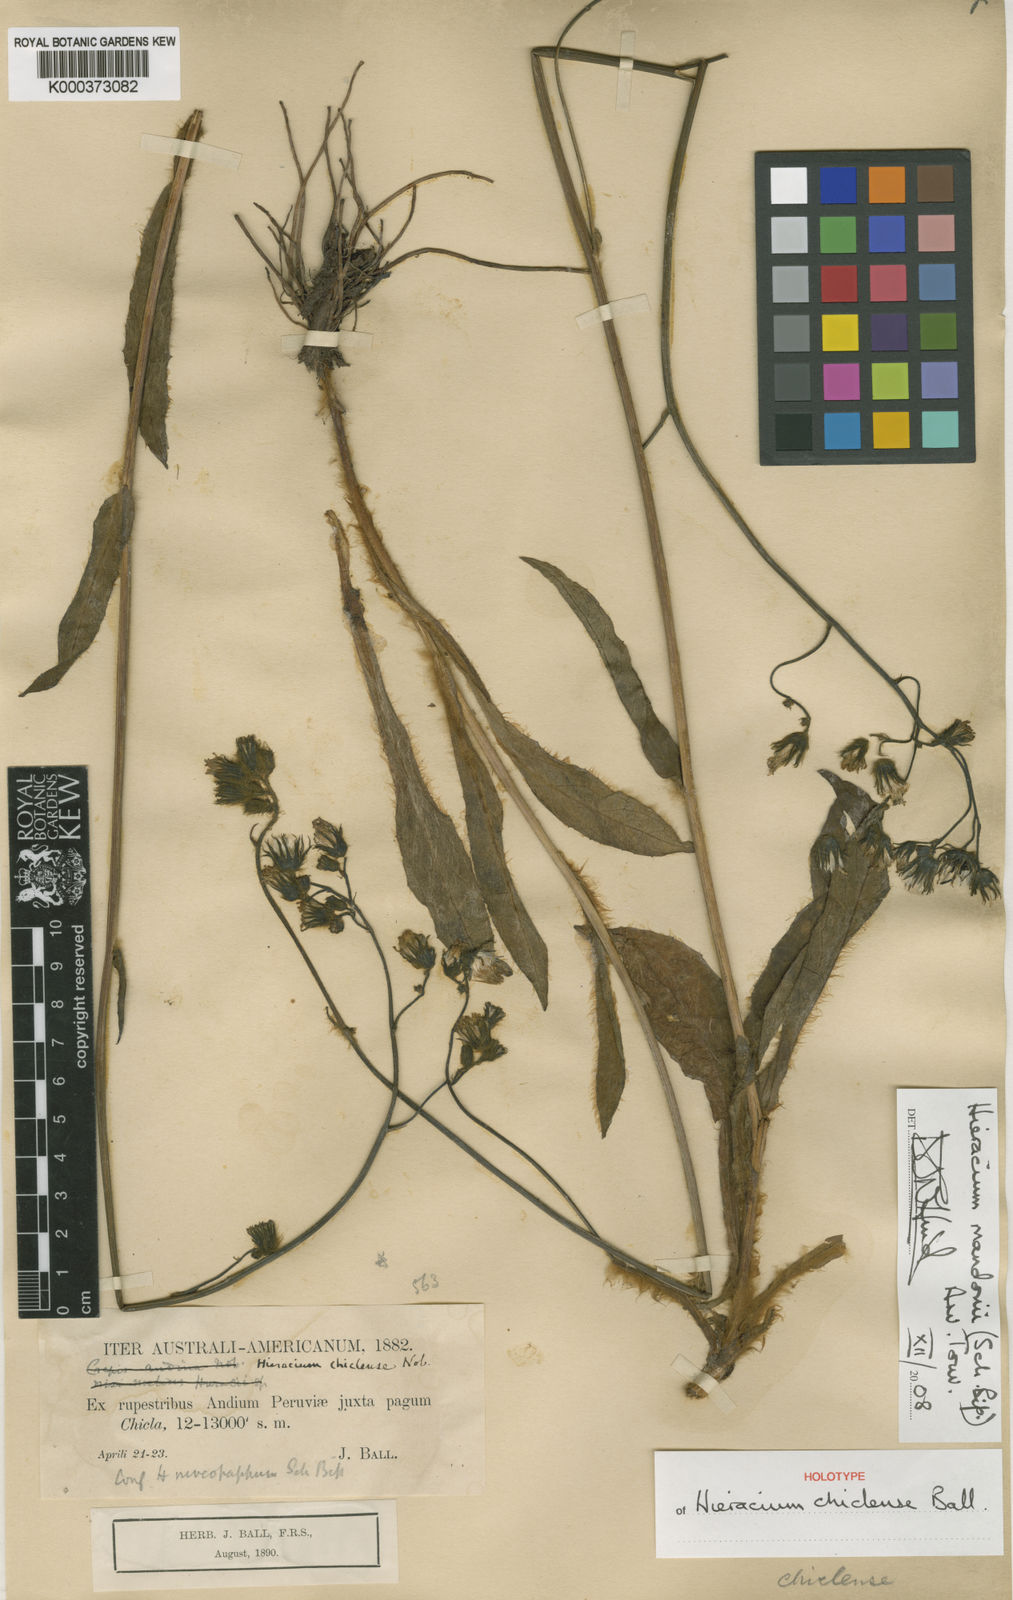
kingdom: Plantae
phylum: Tracheophyta
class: Magnoliopsida
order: Asterales
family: Asteraceae
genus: Hieracium
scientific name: Hieracium
